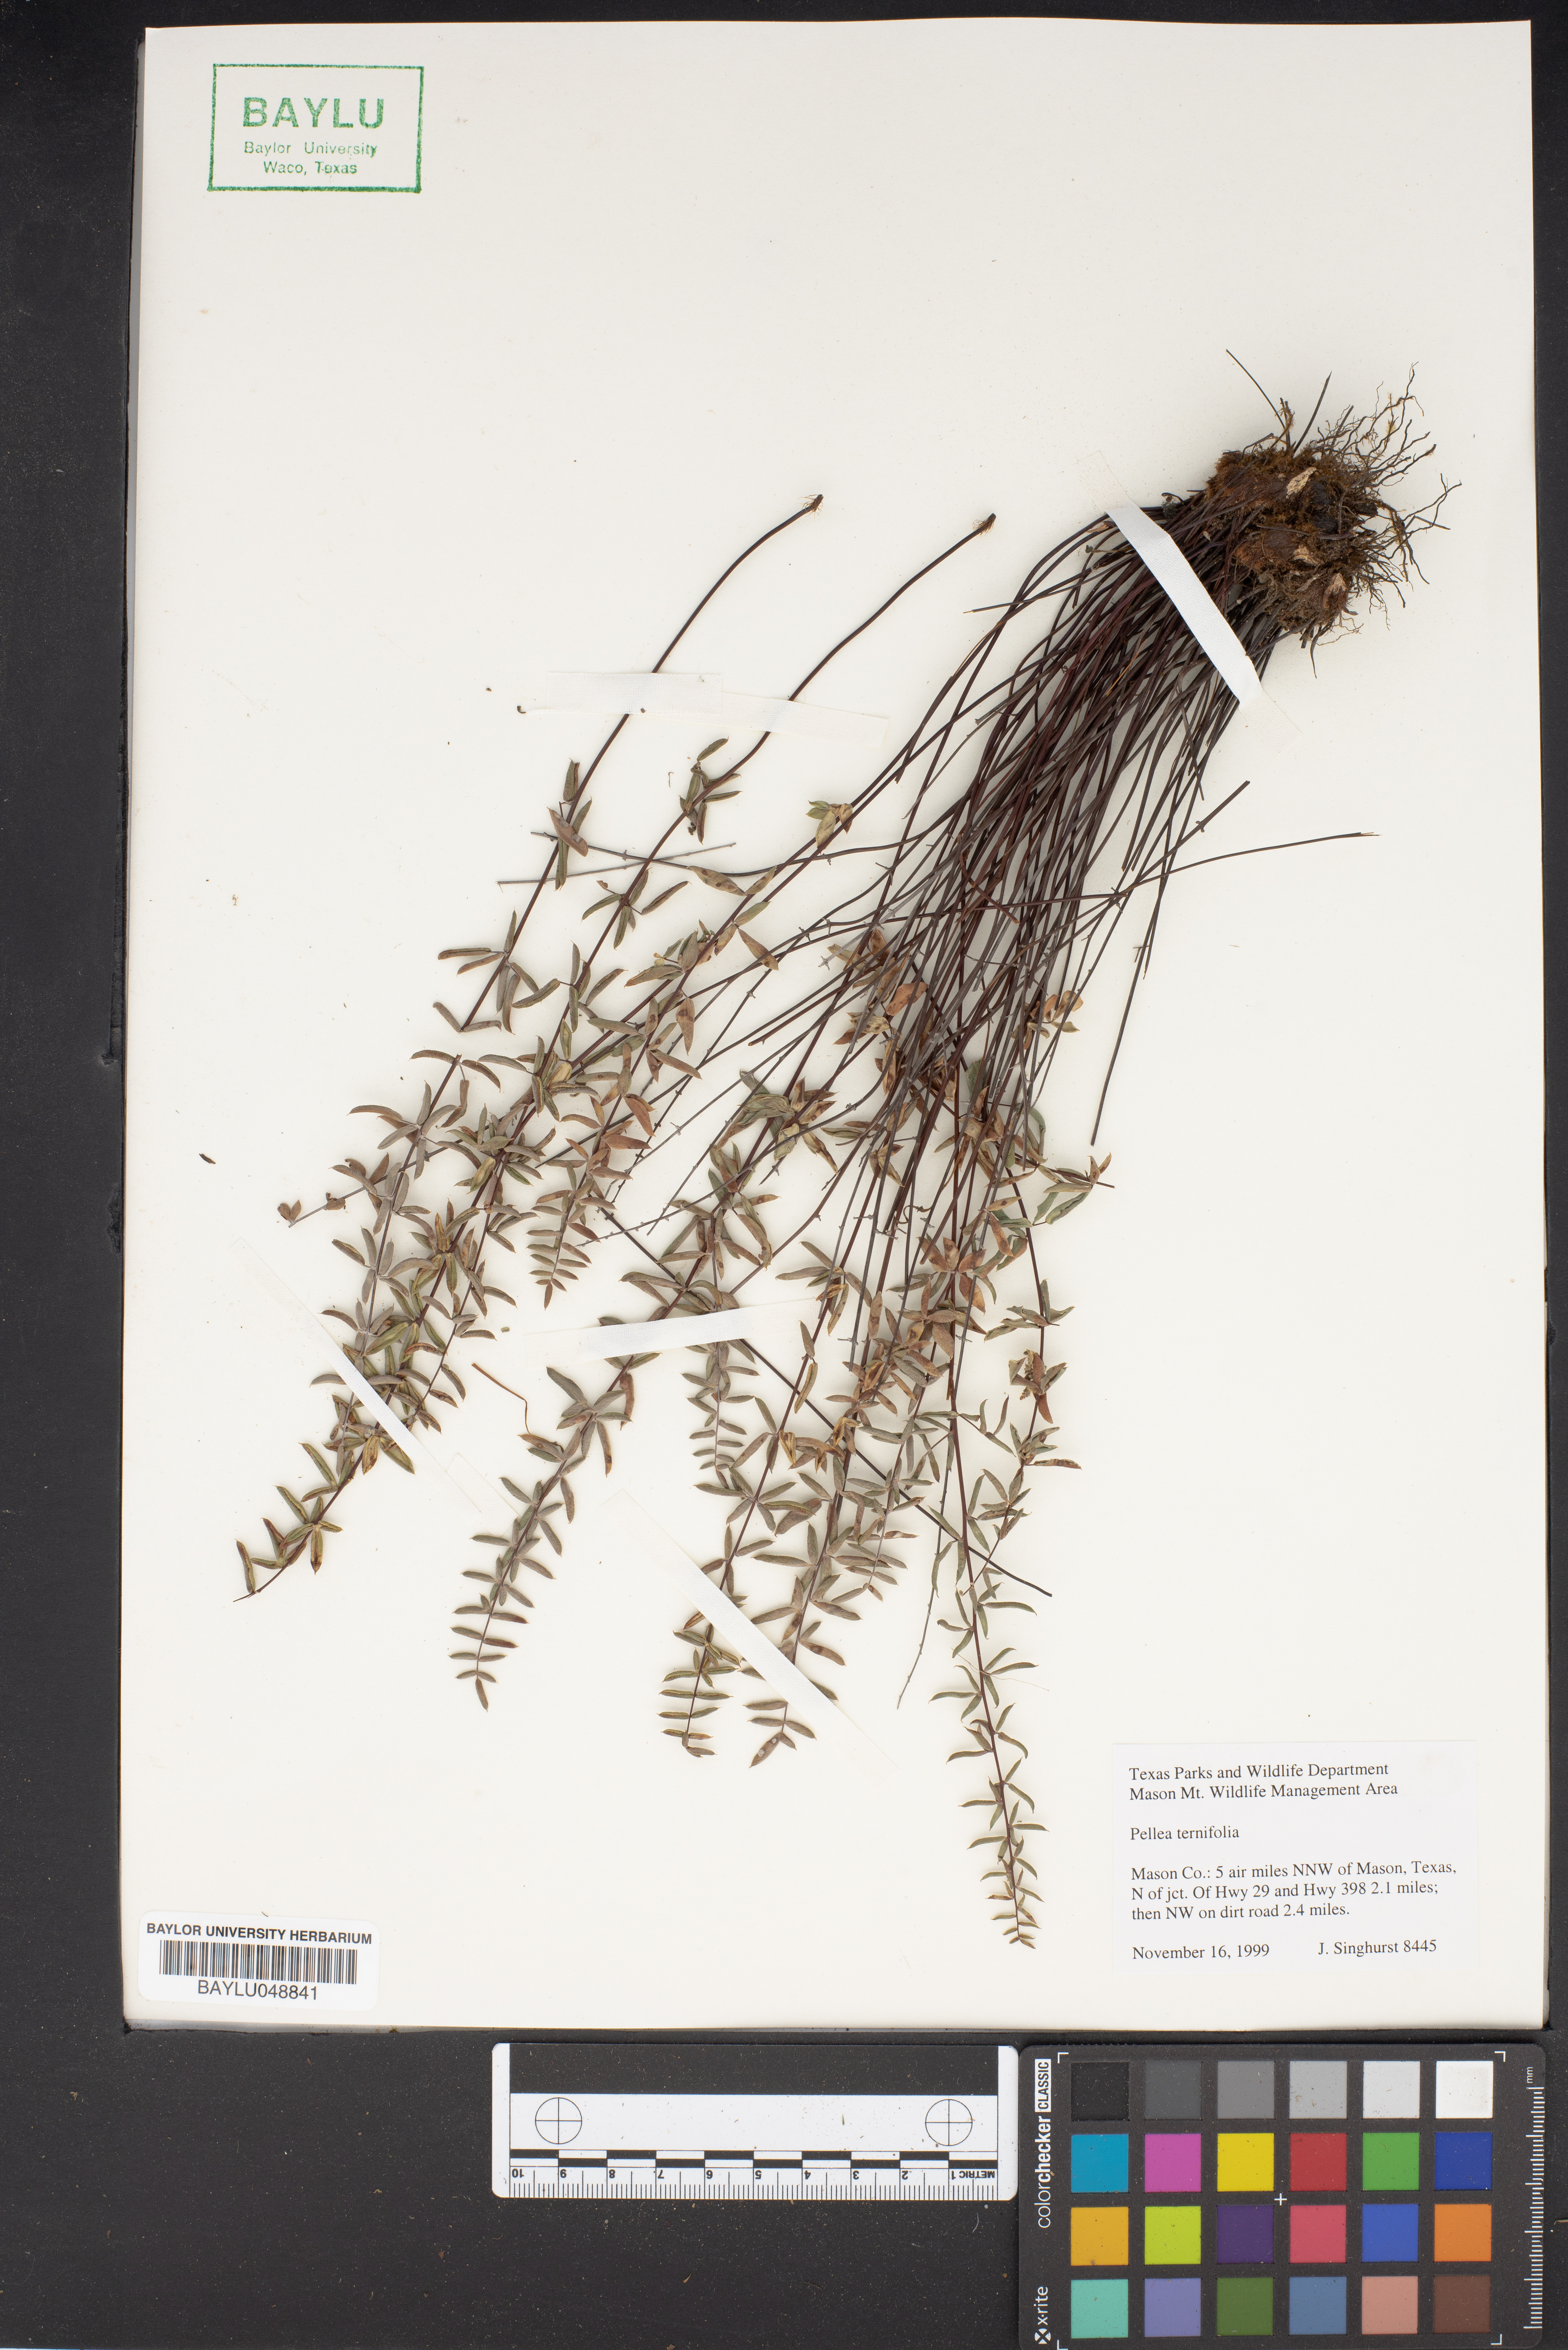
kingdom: Plantae
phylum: Tracheophyta
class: Polypodiopsida
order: Polypodiales
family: Pteridaceae
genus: Pellaea
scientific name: Pellaea ternifolia
